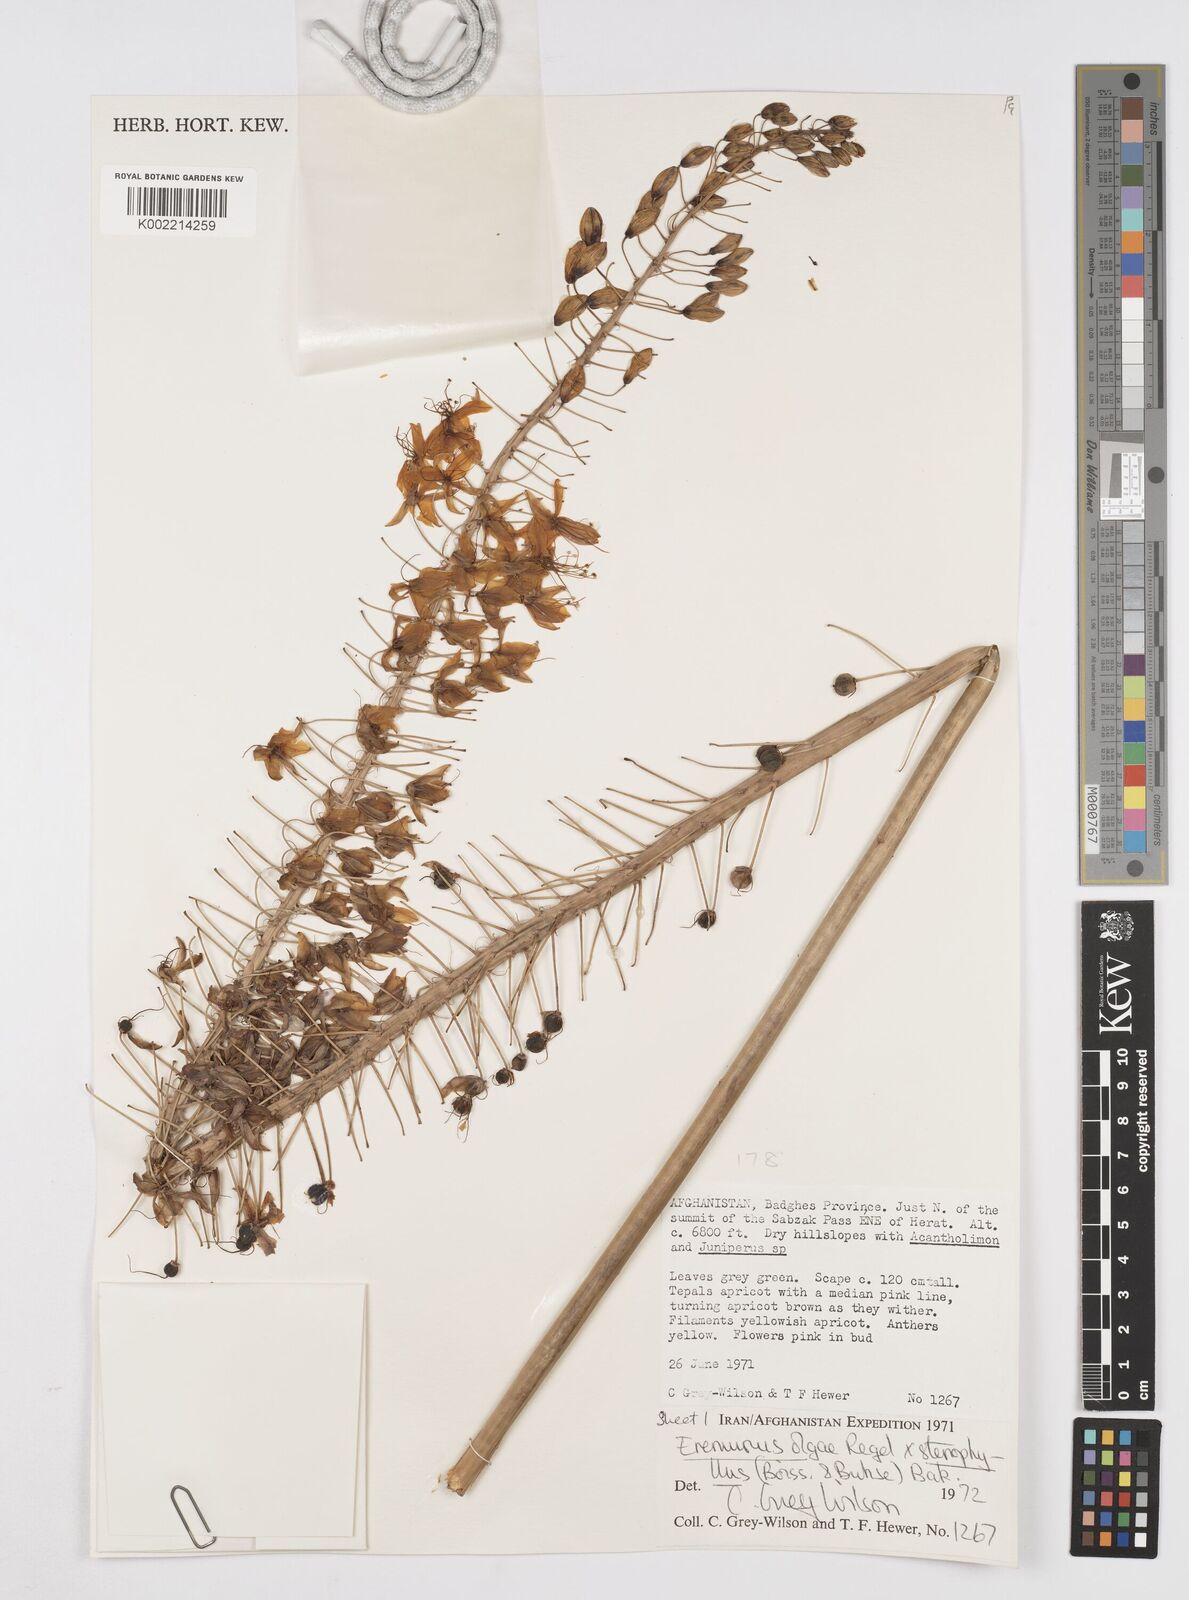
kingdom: Plantae
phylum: Tracheophyta
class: Liliopsida
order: Asparagales
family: Asphodelaceae
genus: Eremurus
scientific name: Eremurus olgae
